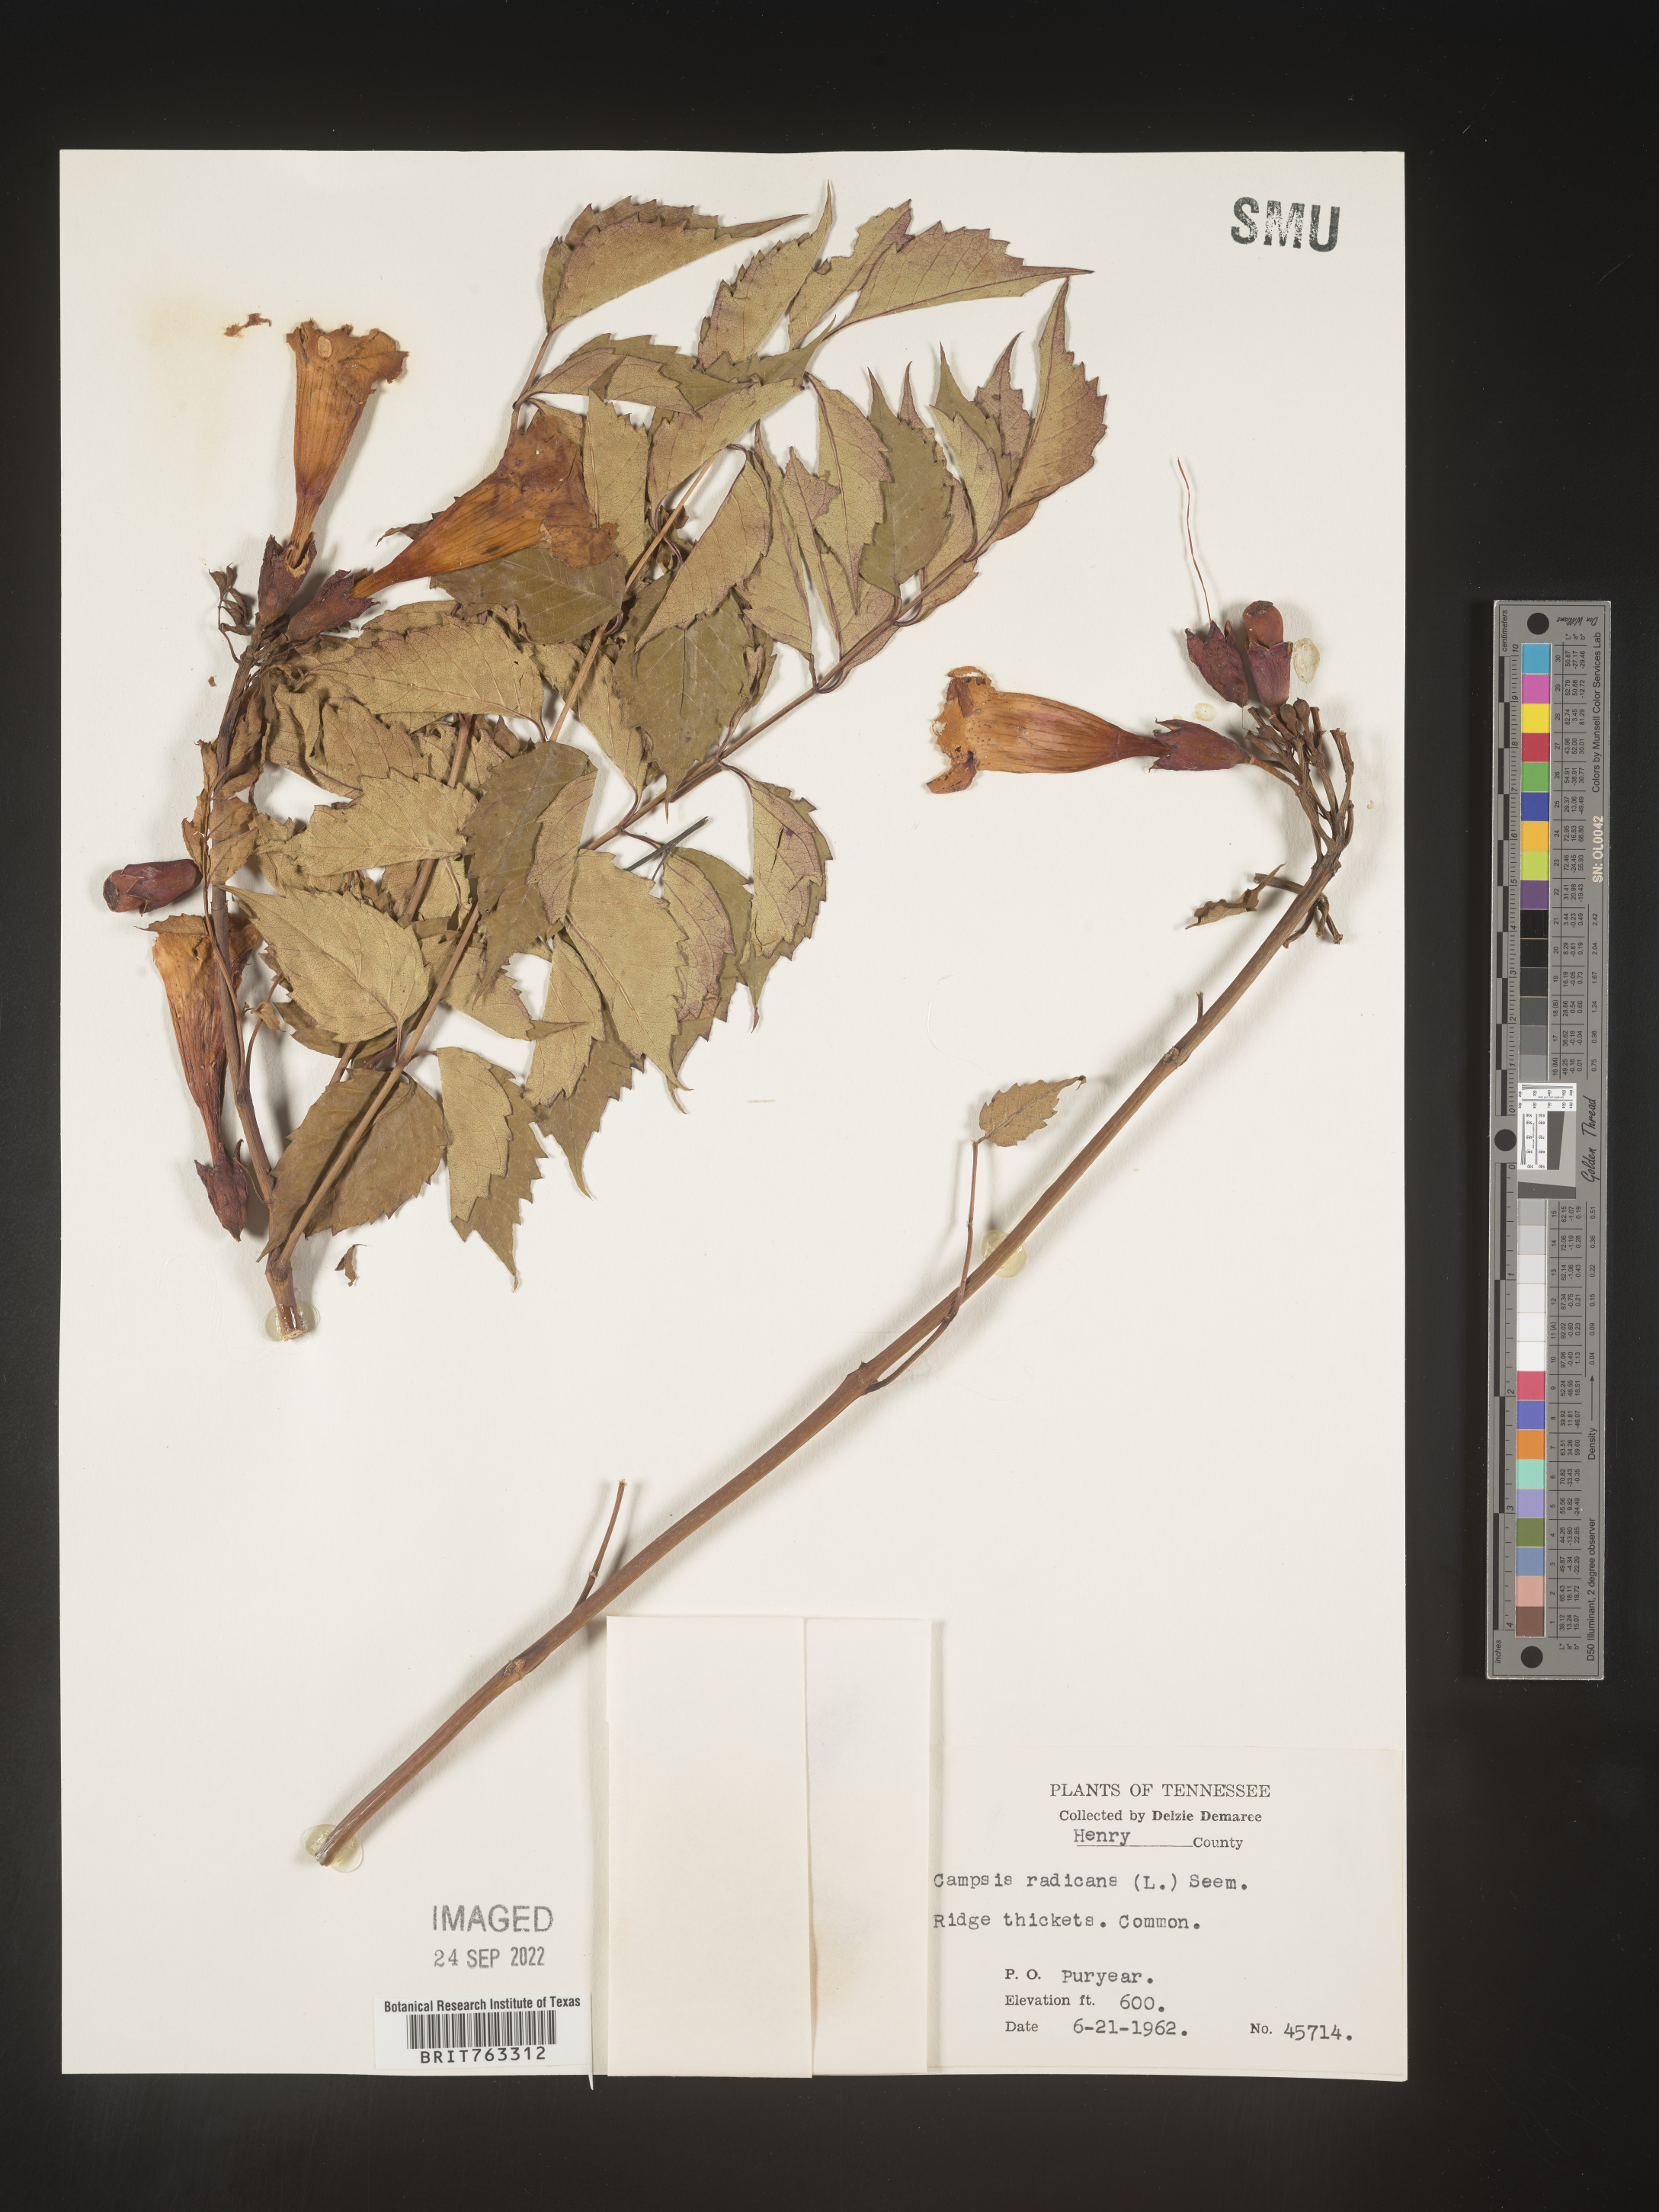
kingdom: Plantae
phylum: Tracheophyta
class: Magnoliopsida
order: Lamiales
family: Bignoniaceae
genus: Campsis
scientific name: Campsis radicans
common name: Trumpet-creeper
